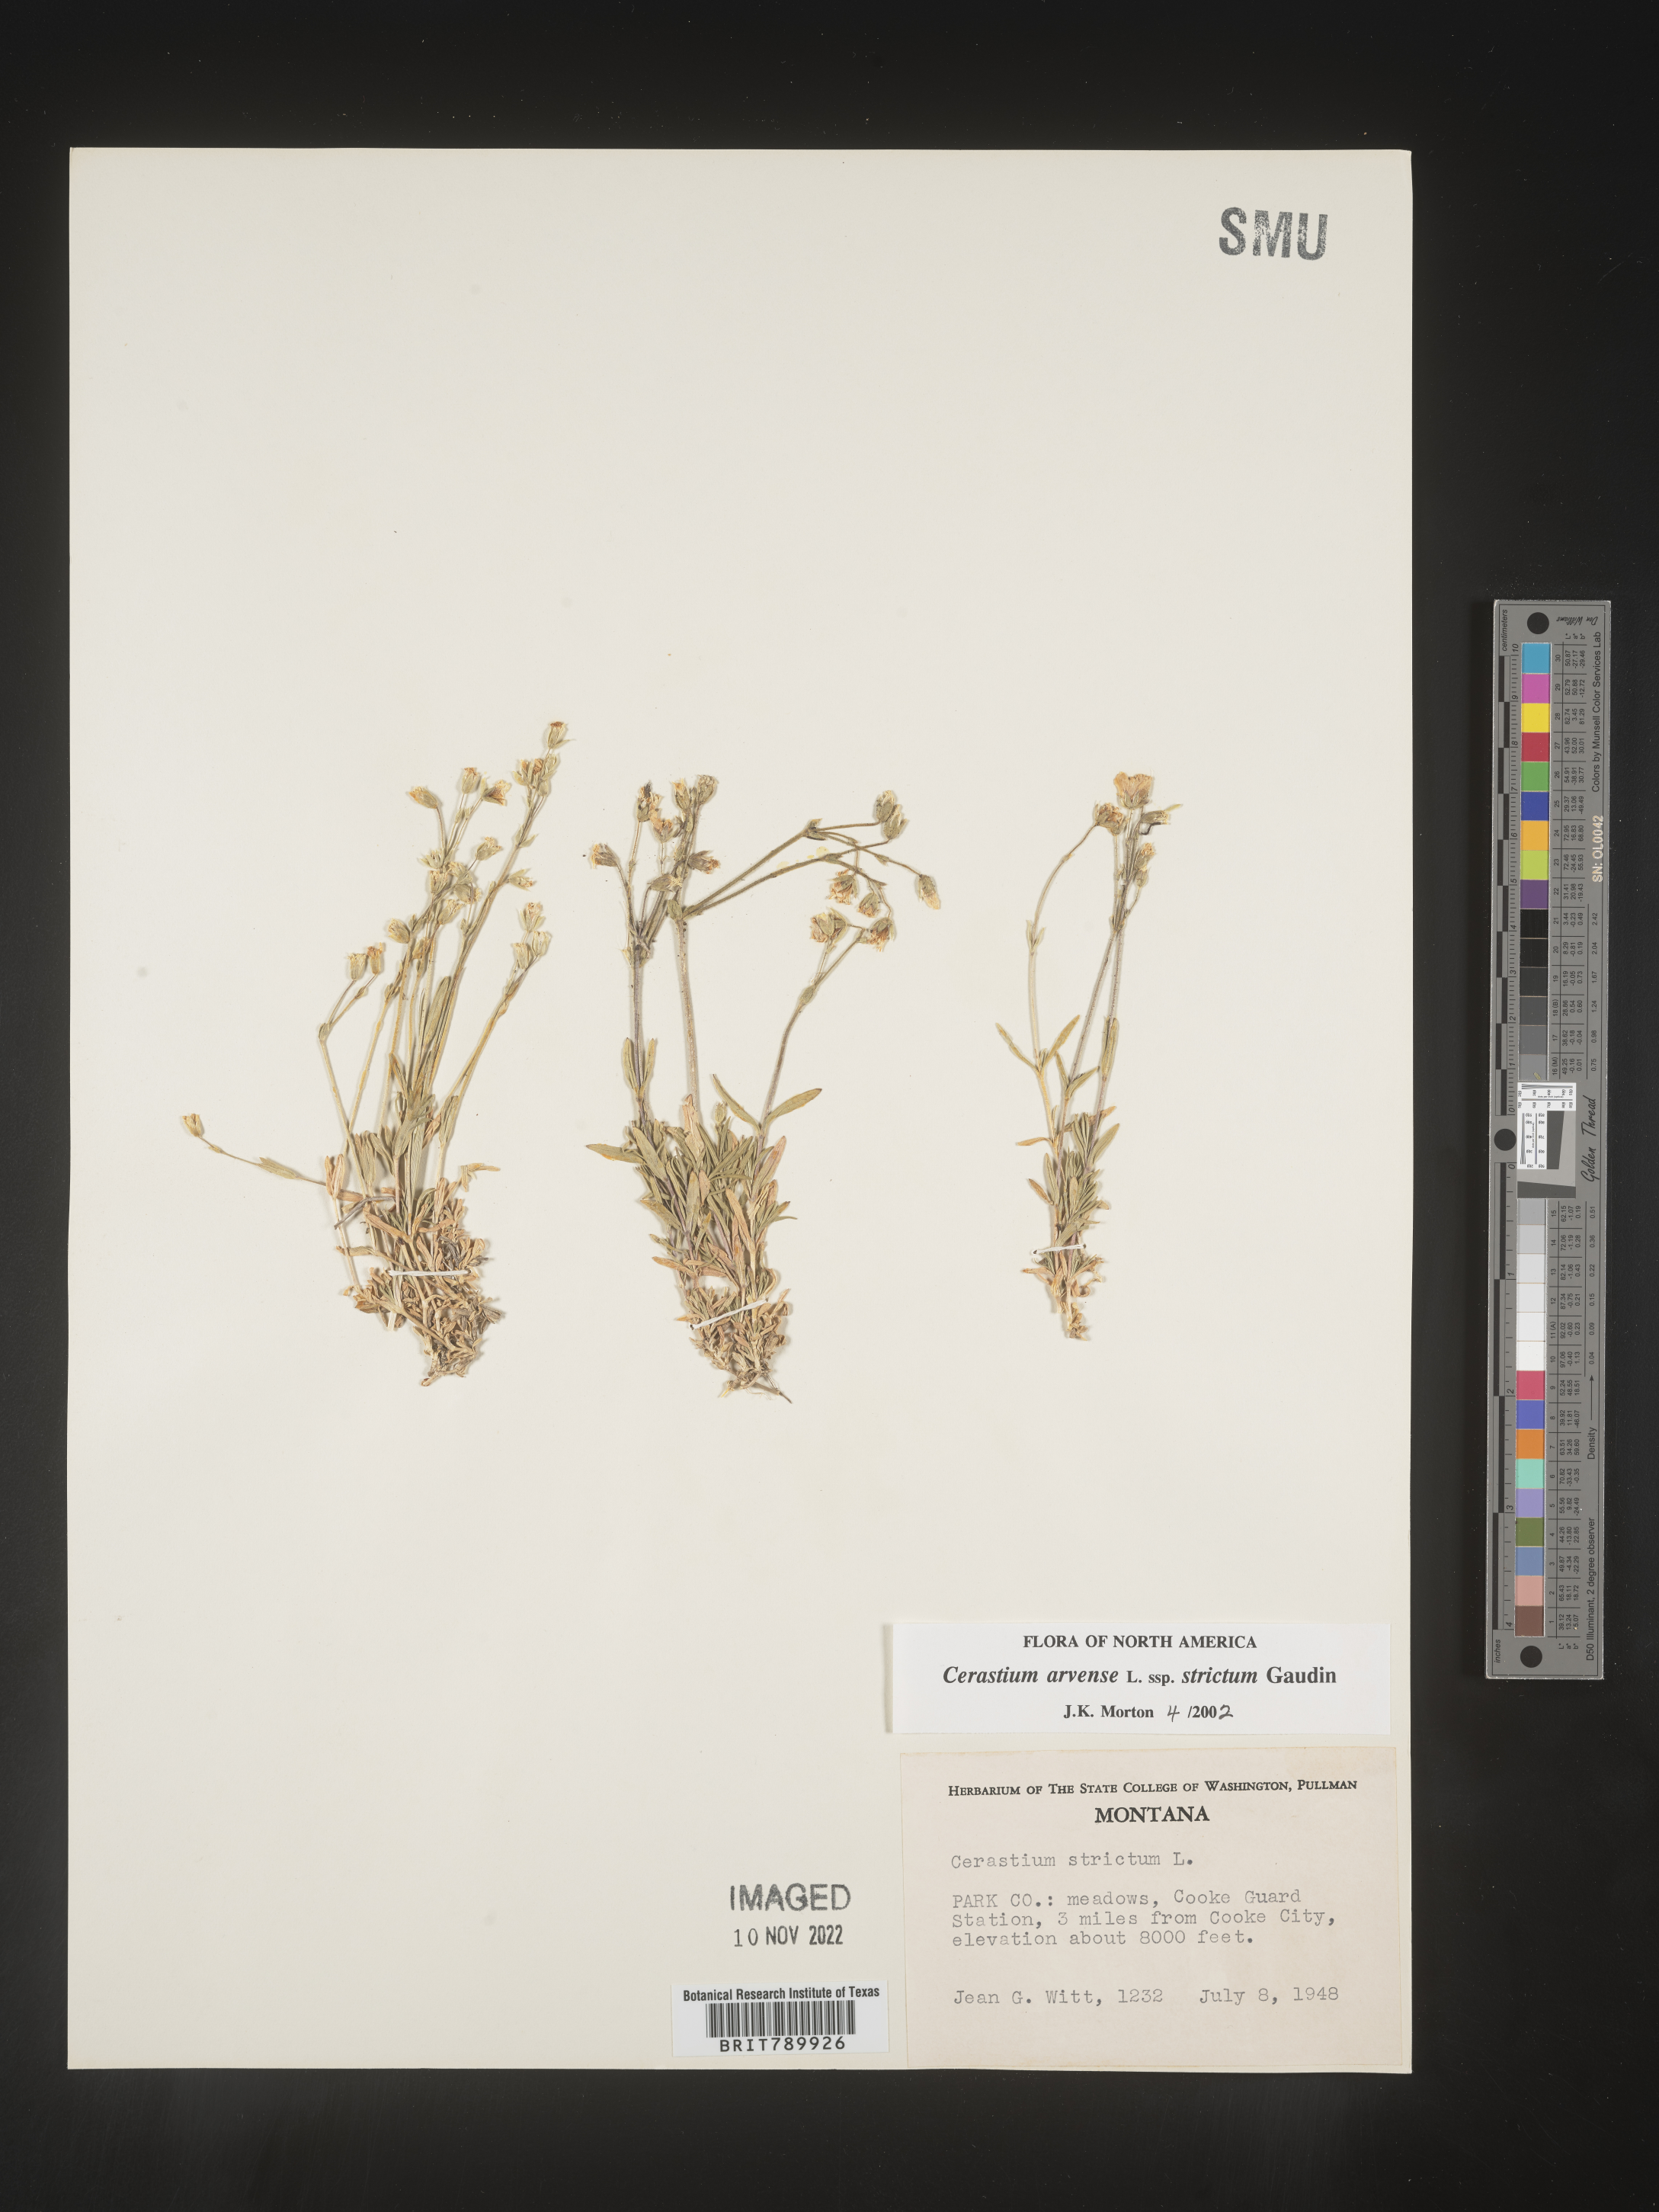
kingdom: Plantae
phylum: Tracheophyta
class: Magnoliopsida
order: Caryophyllales
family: Caryophyllaceae
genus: Cerastium
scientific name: Cerastium arvense
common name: Field mouse-ear
